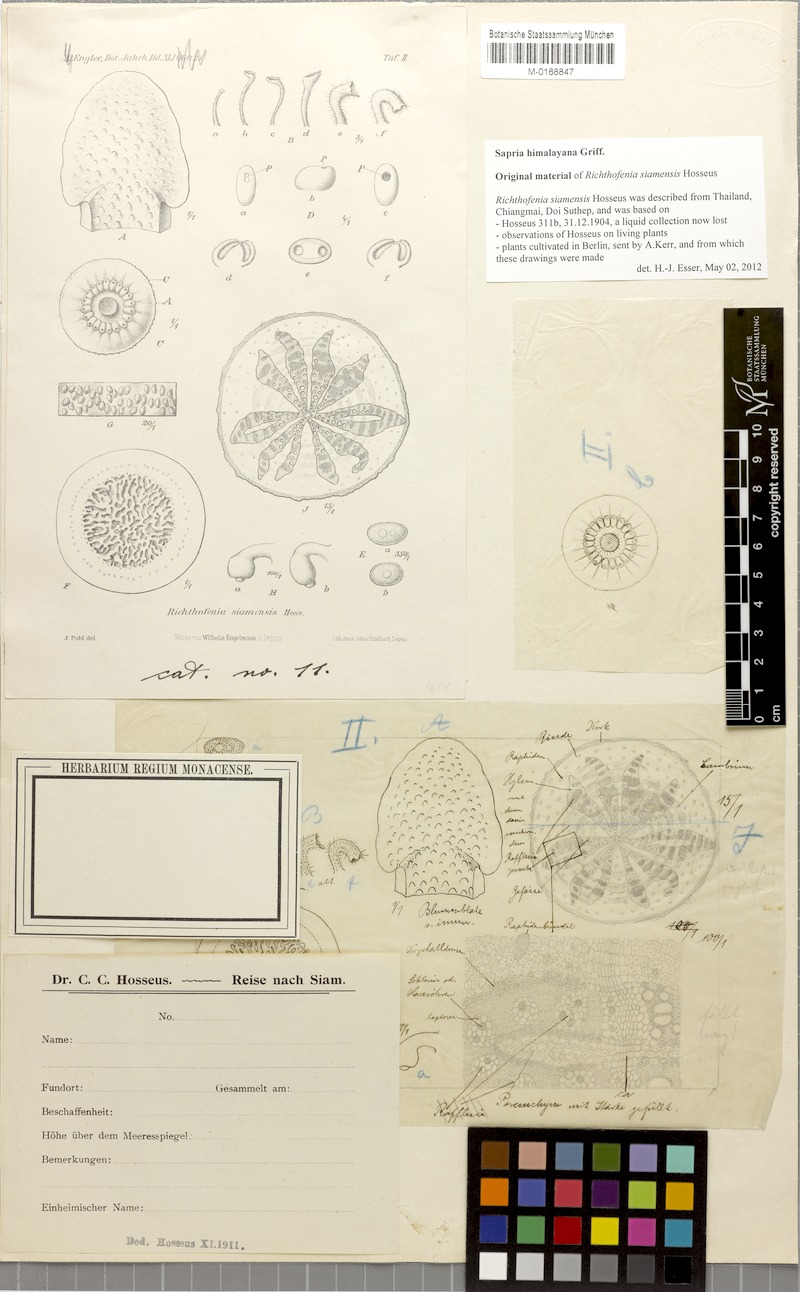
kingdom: Plantae
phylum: Tracheophyta
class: Magnoliopsida
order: Malpighiales
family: Rafflesiaceae
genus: Sapria
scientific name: Sapria himalayana
